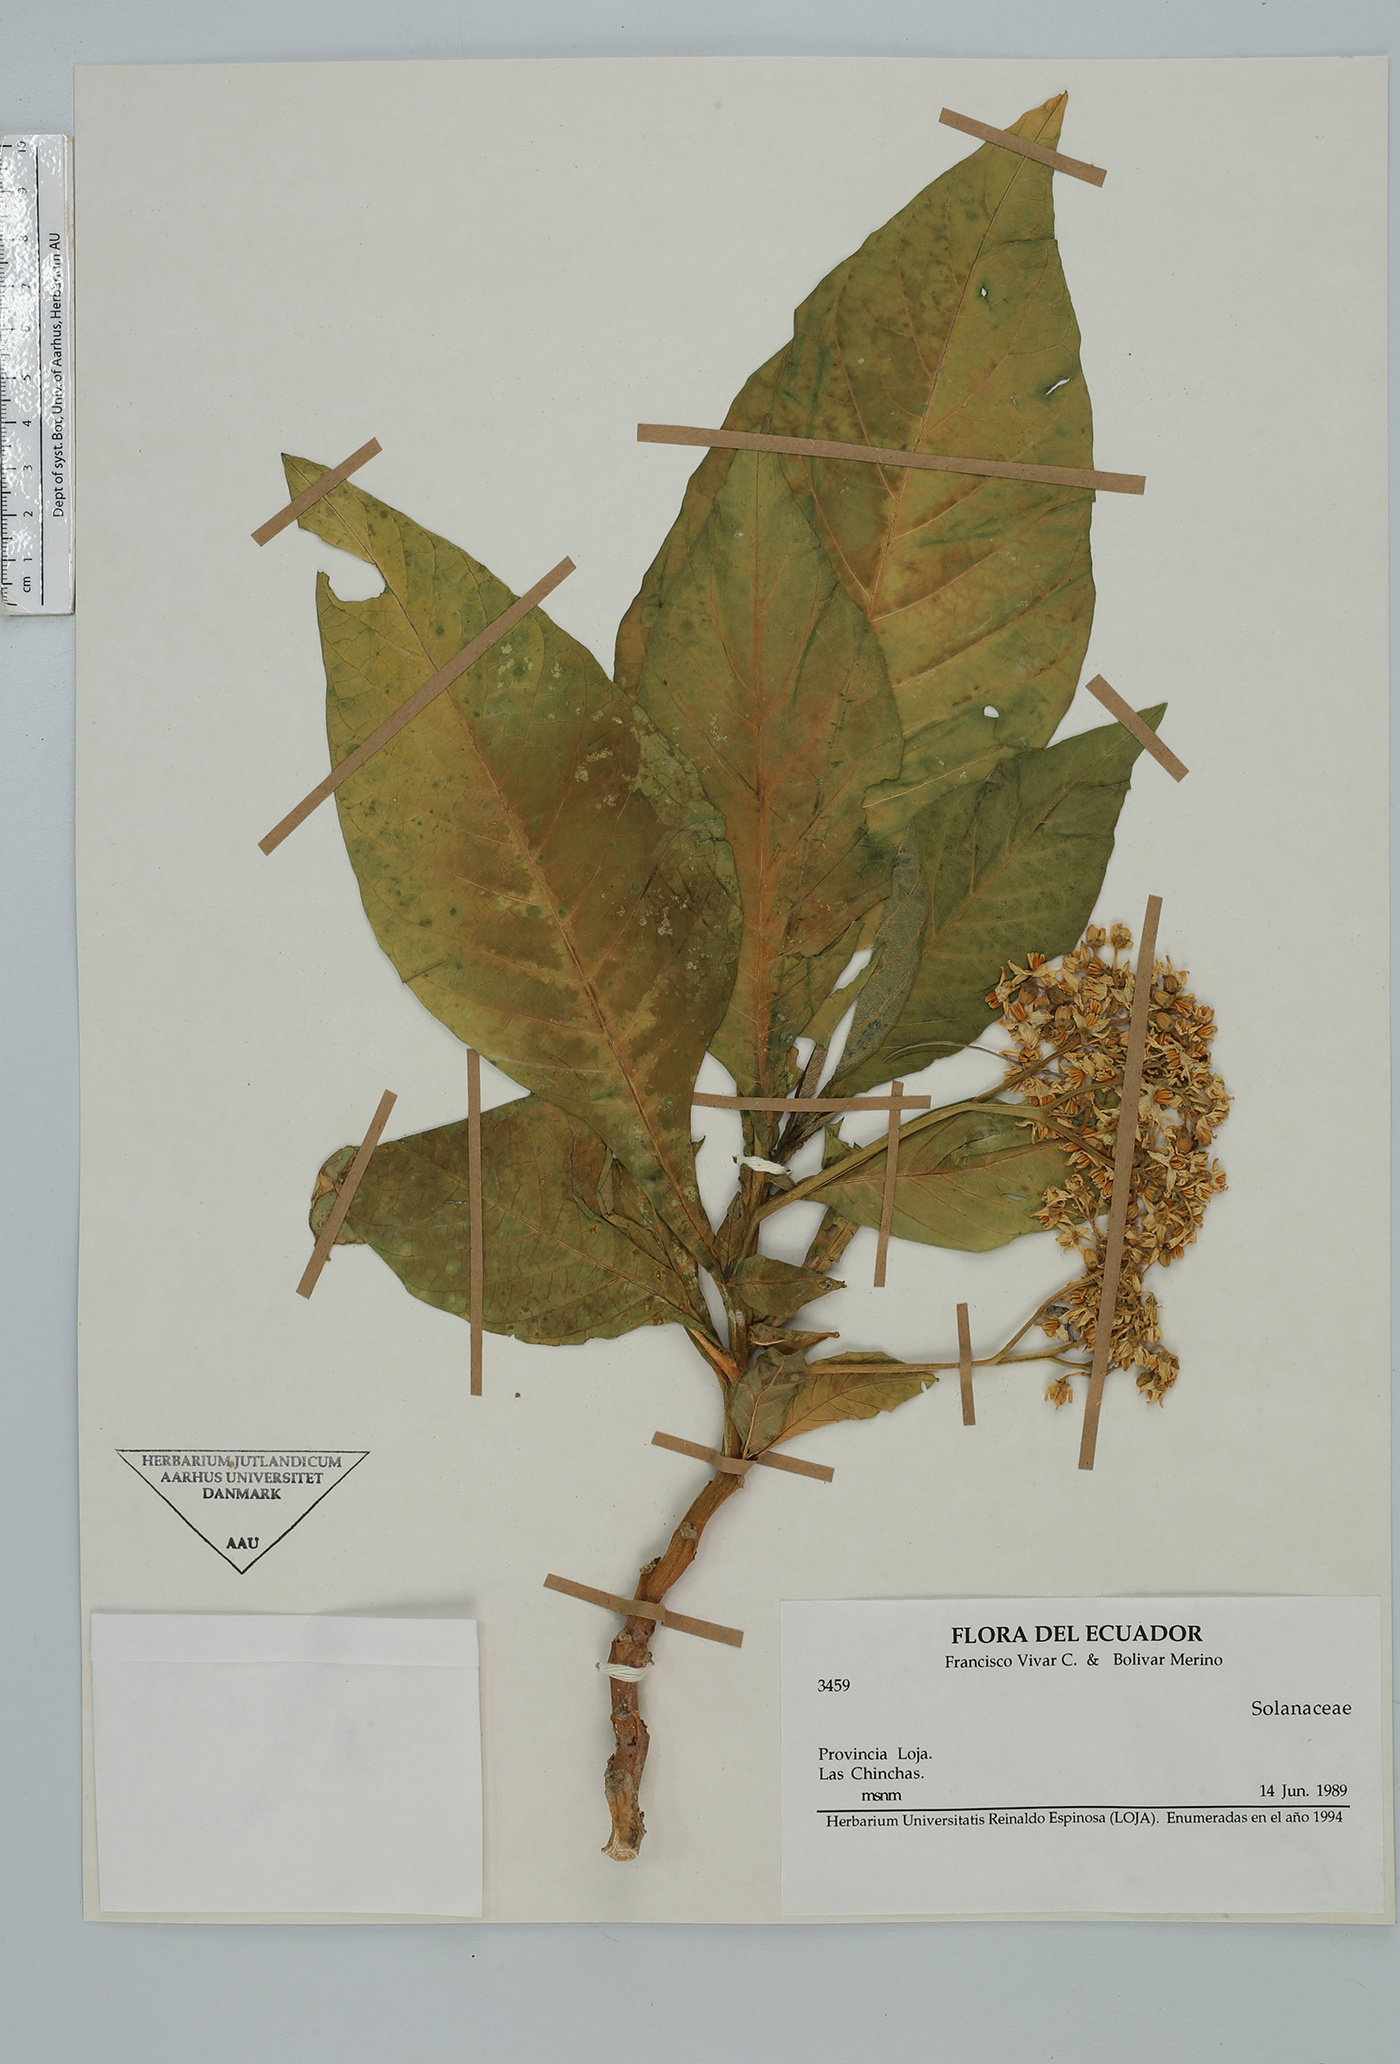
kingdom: Plantae
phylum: Tracheophyta
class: Magnoliopsida
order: Solanales
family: Solanaceae
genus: Solanum
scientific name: Solanum oblongifolium
